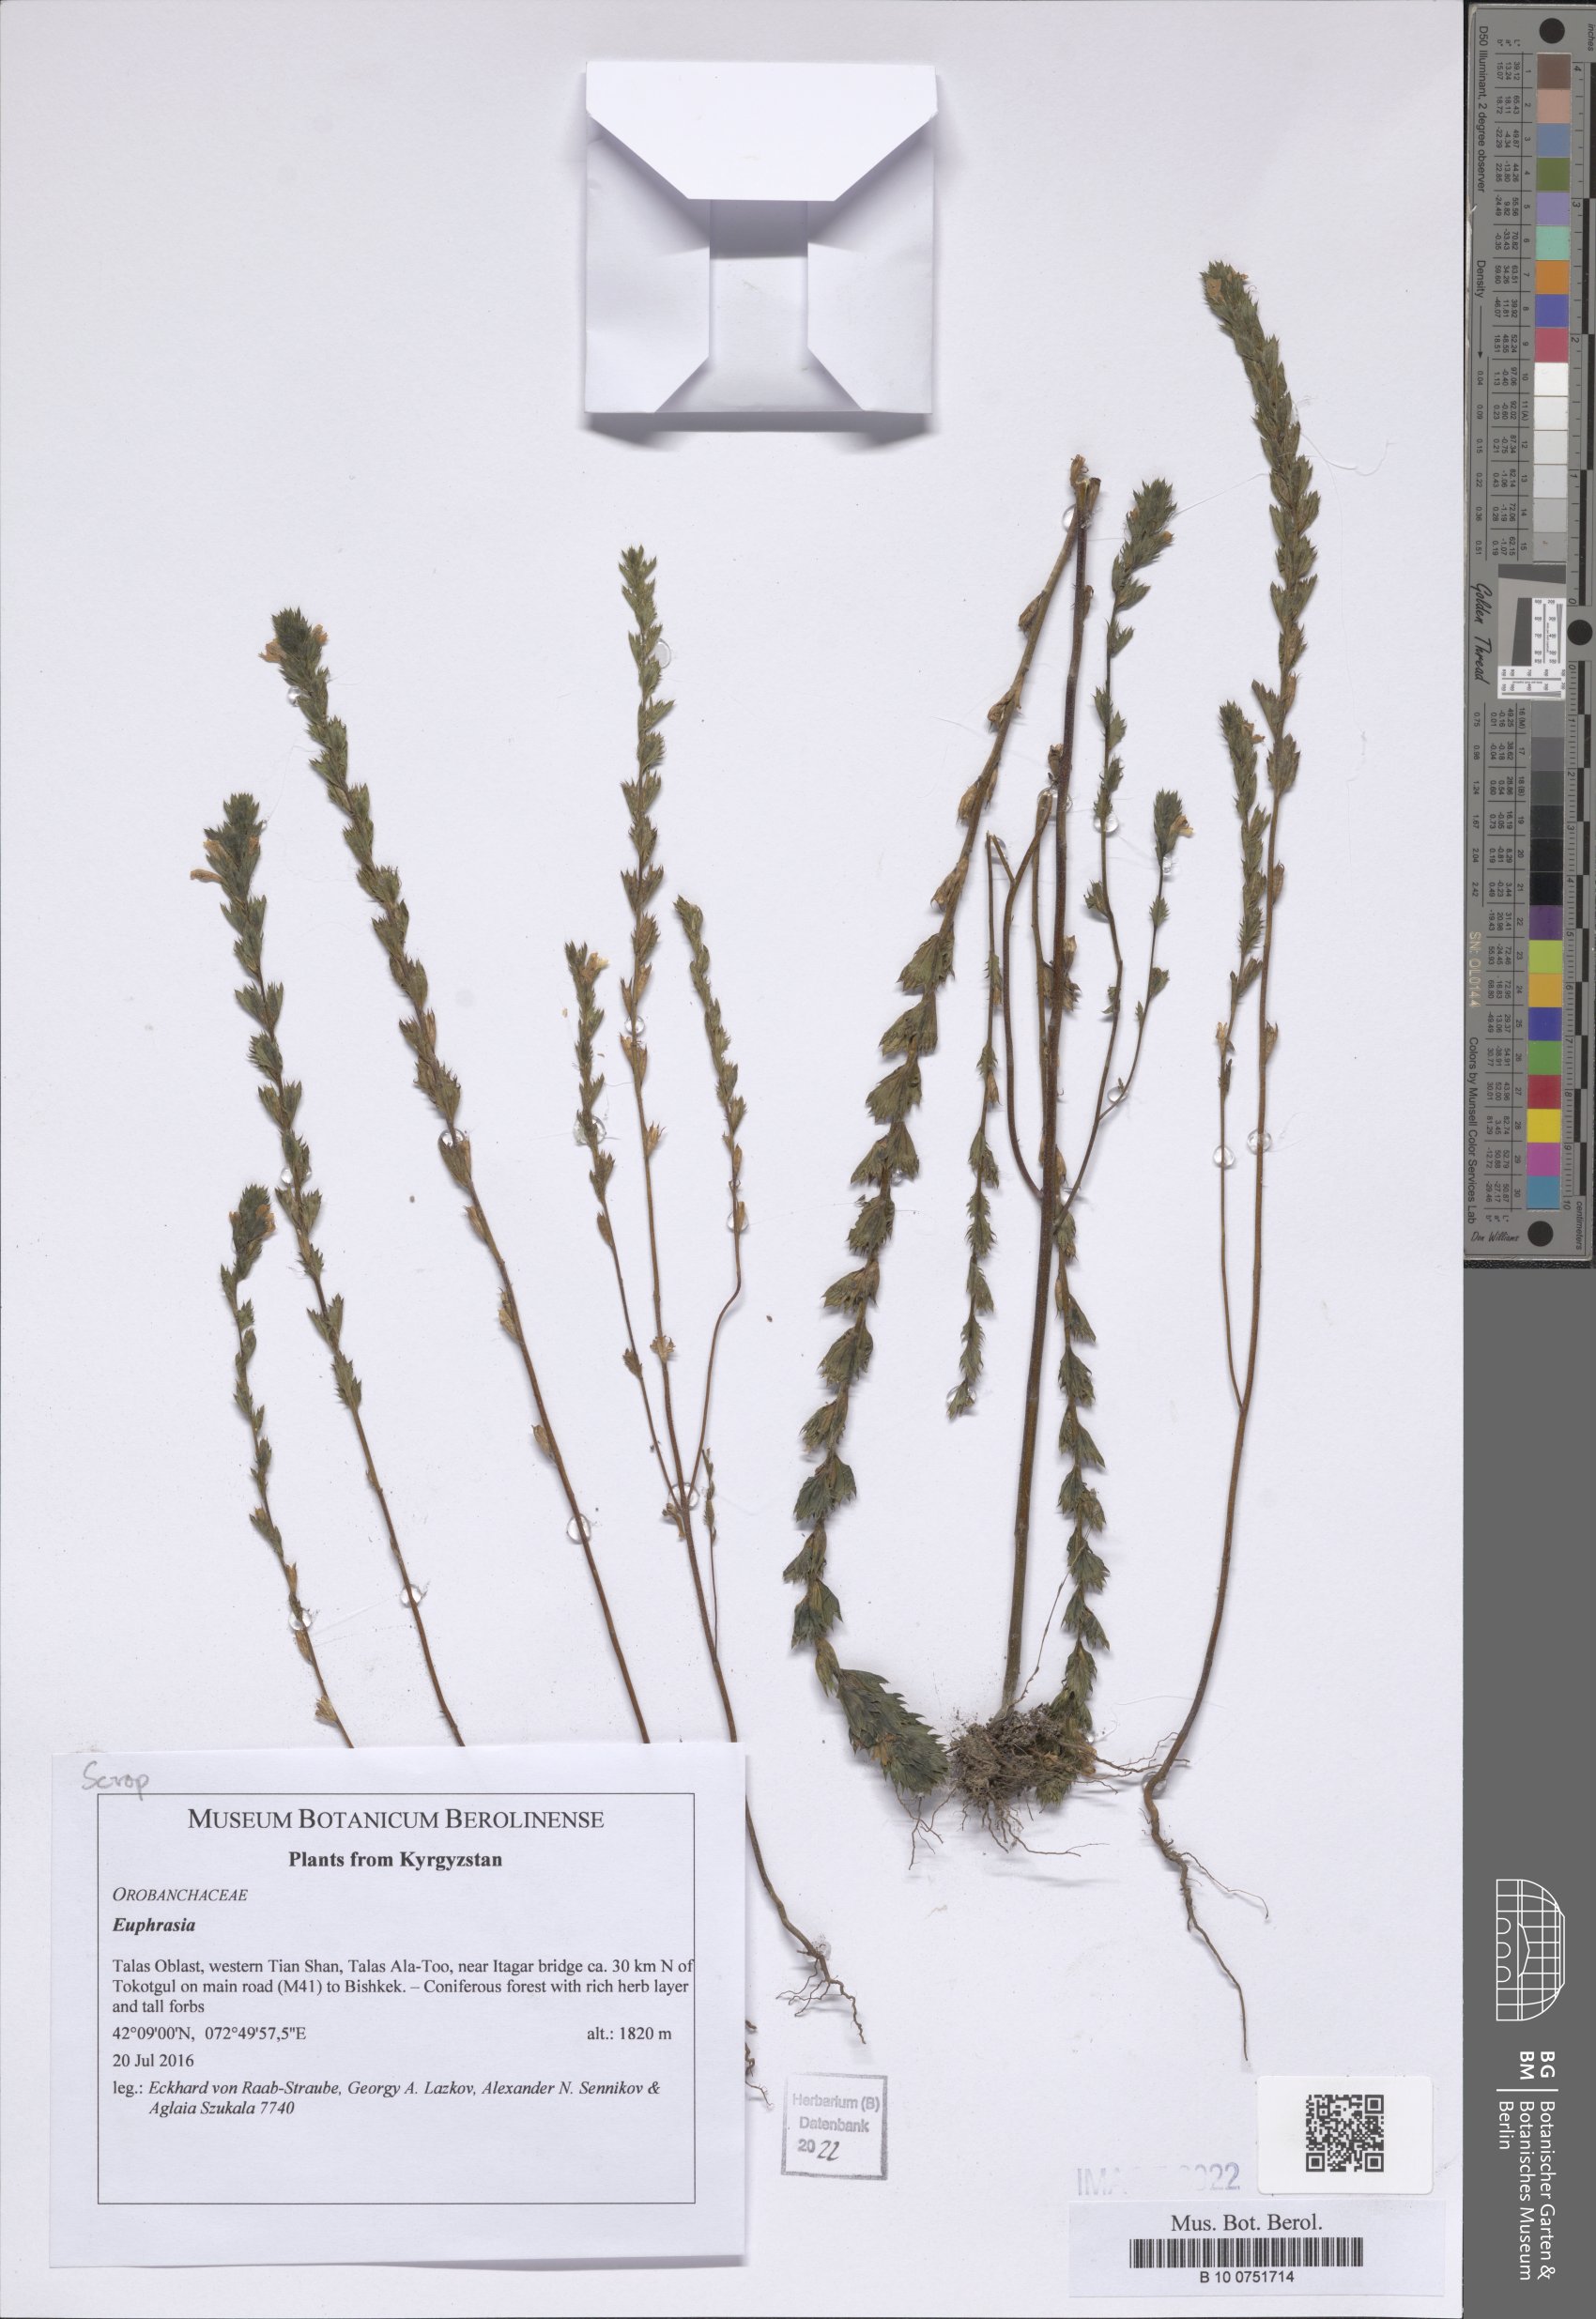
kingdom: Plantae
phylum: Tracheophyta
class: Magnoliopsida
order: Lamiales
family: Orobanchaceae
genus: Euphrasia
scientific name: Euphrasia
